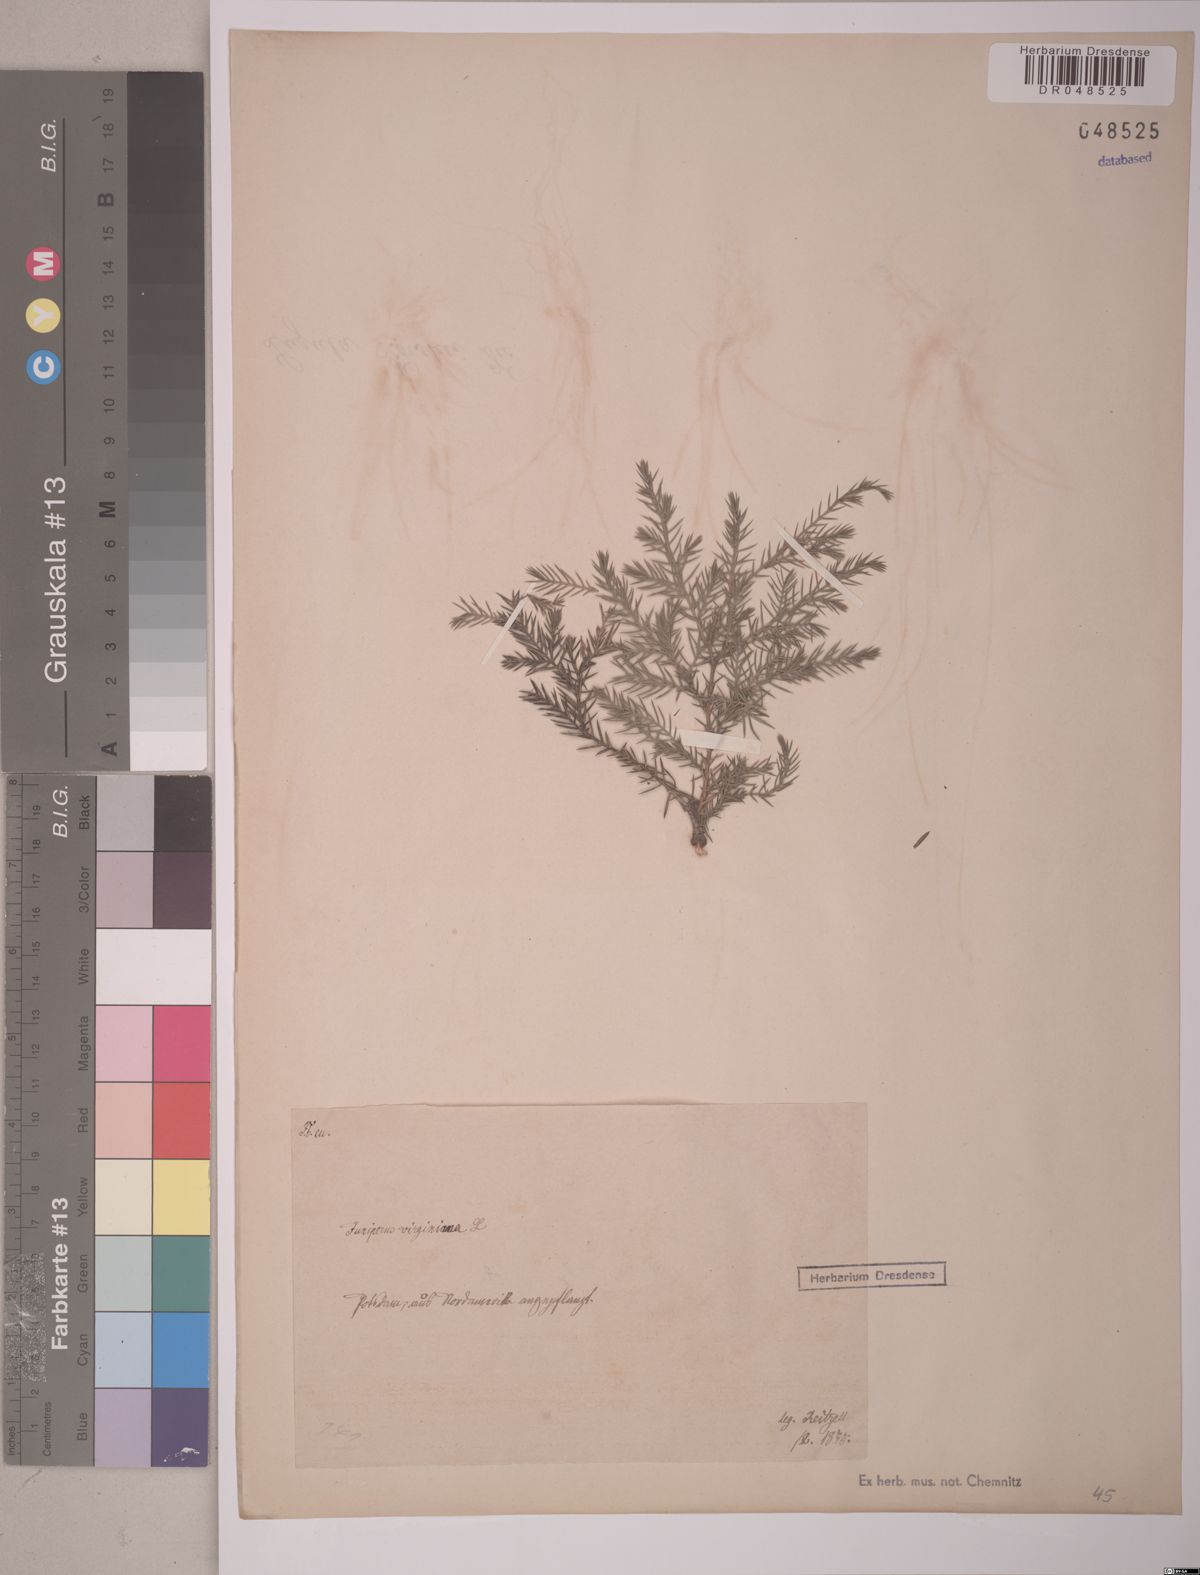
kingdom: Plantae
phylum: Tracheophyta
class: Pinopsida
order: Pinales
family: Cupressaceae
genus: Juniperus
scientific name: Juniperus virginiana
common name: Red juniper
